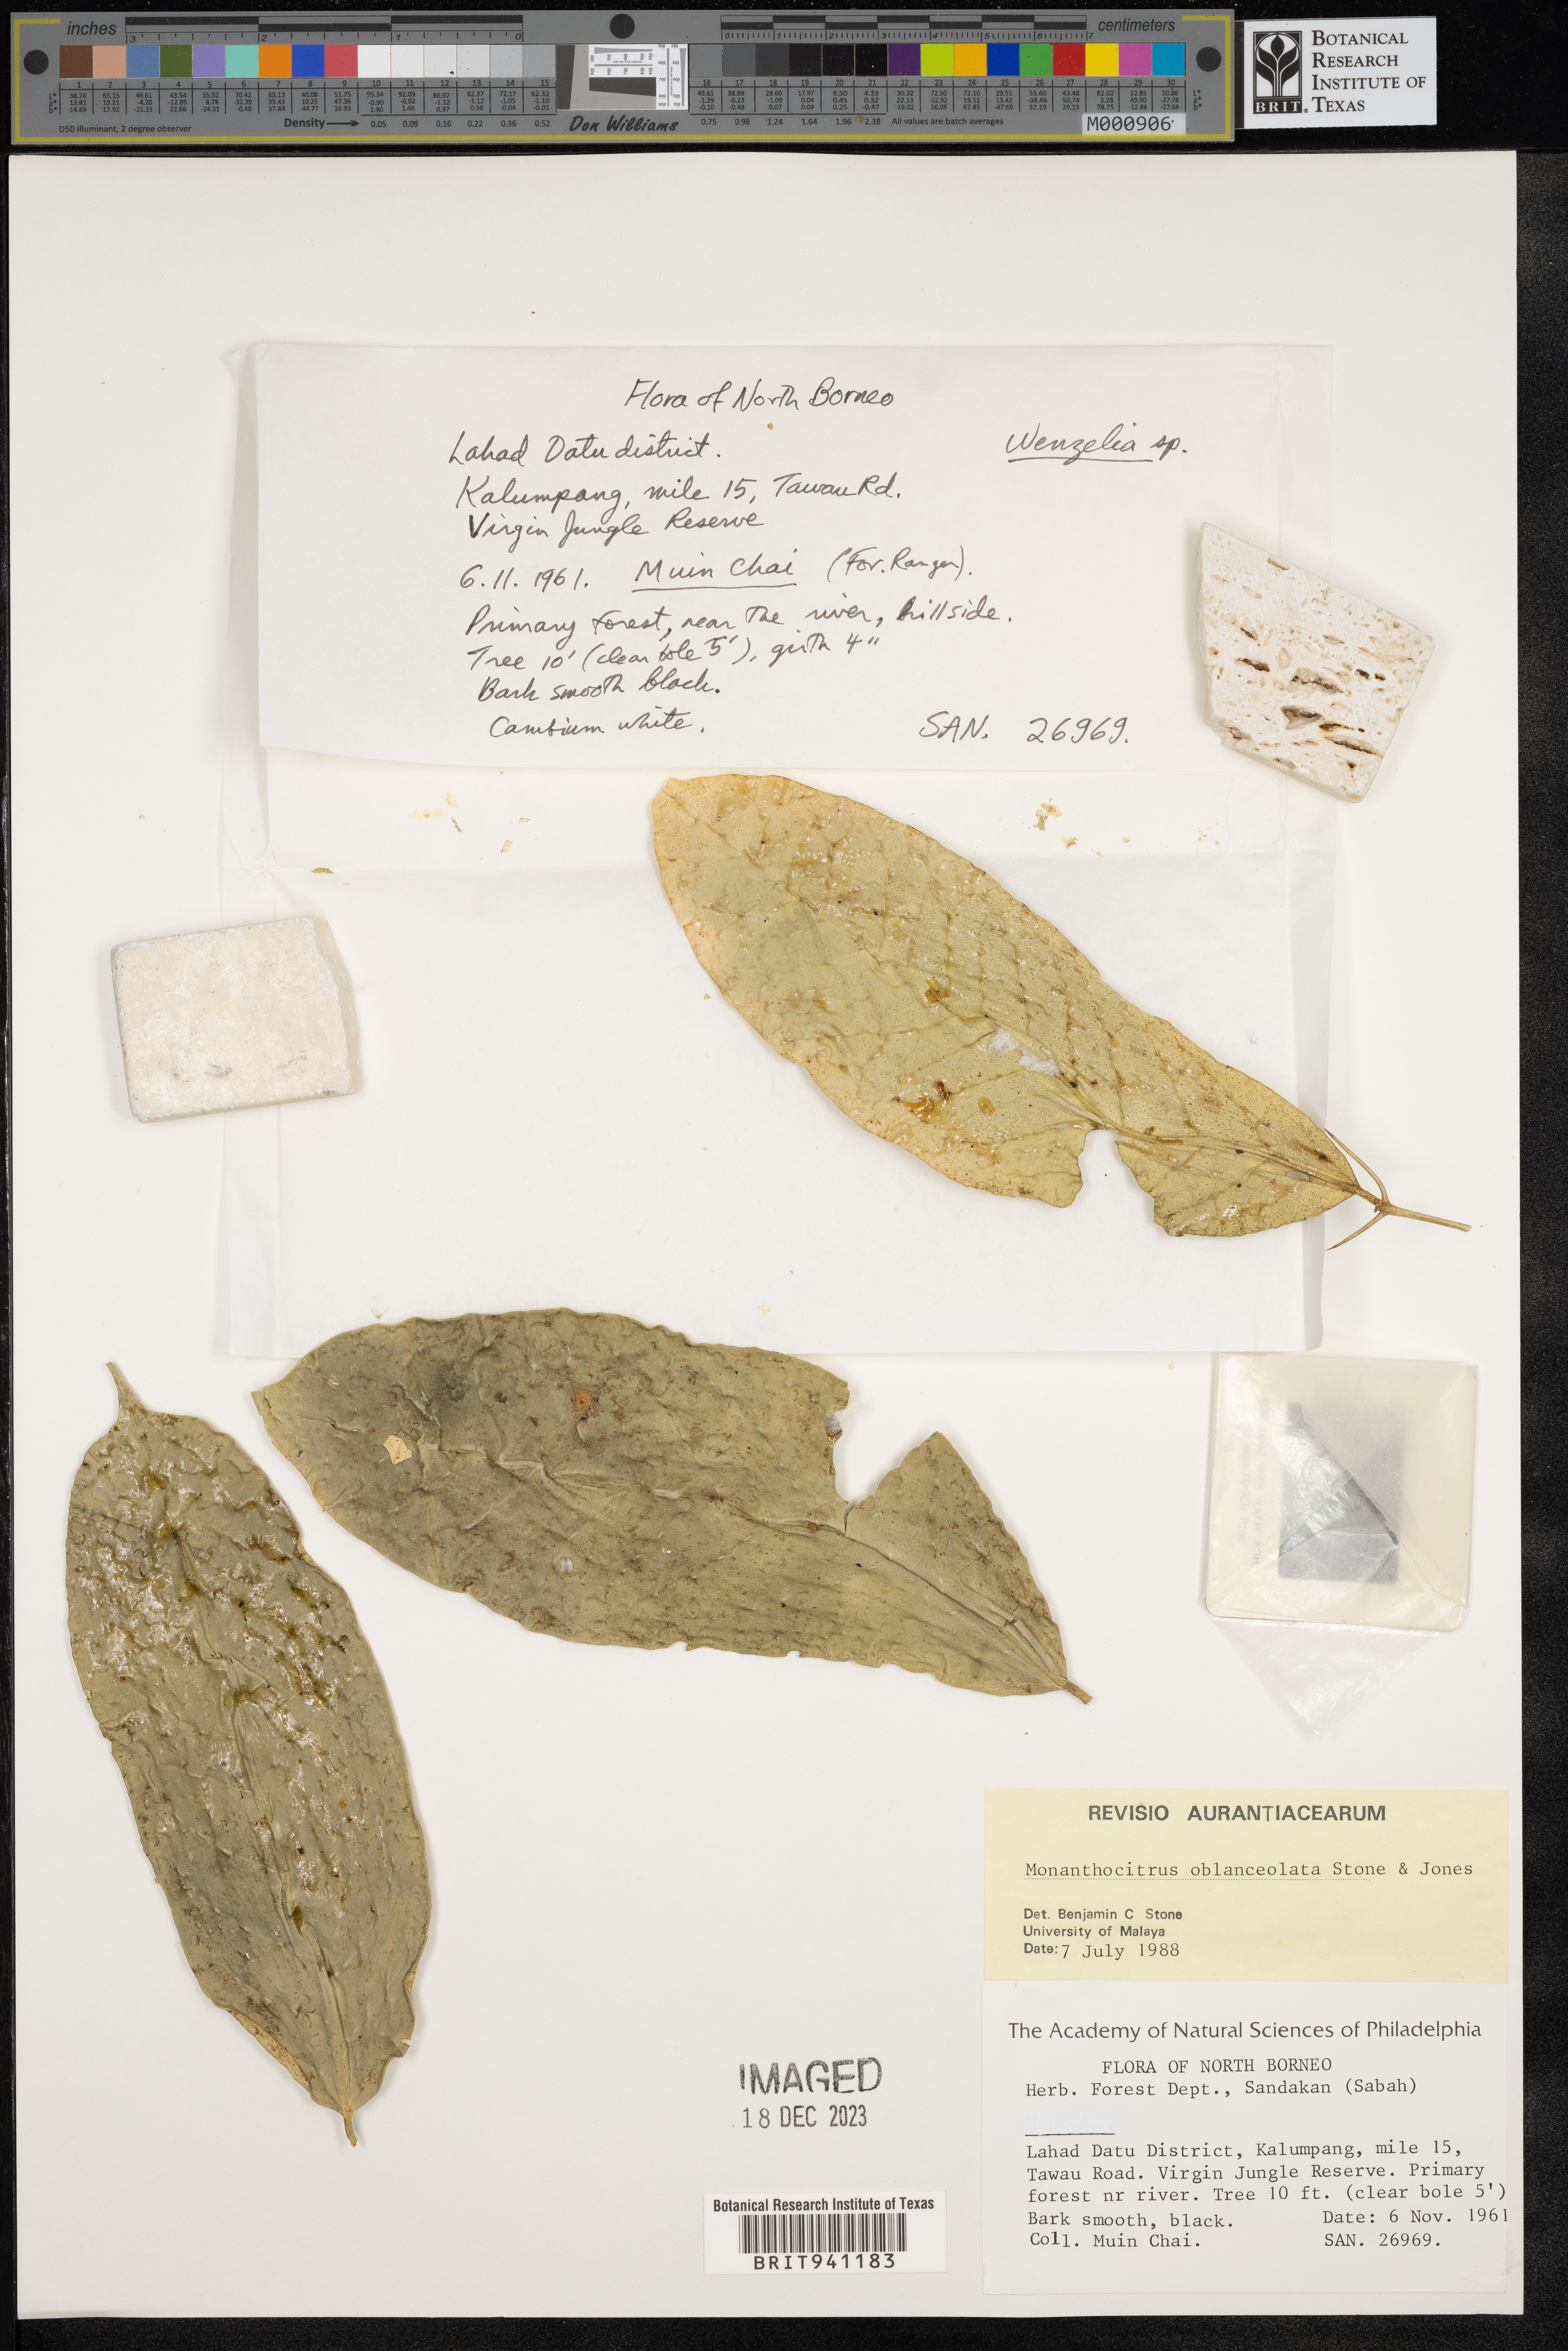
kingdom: Plantae
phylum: Tracheophyta
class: Magnoliopsida
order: Sapindales
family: Rutaceae
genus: Monanthocitrus
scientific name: Monanthocitrus
